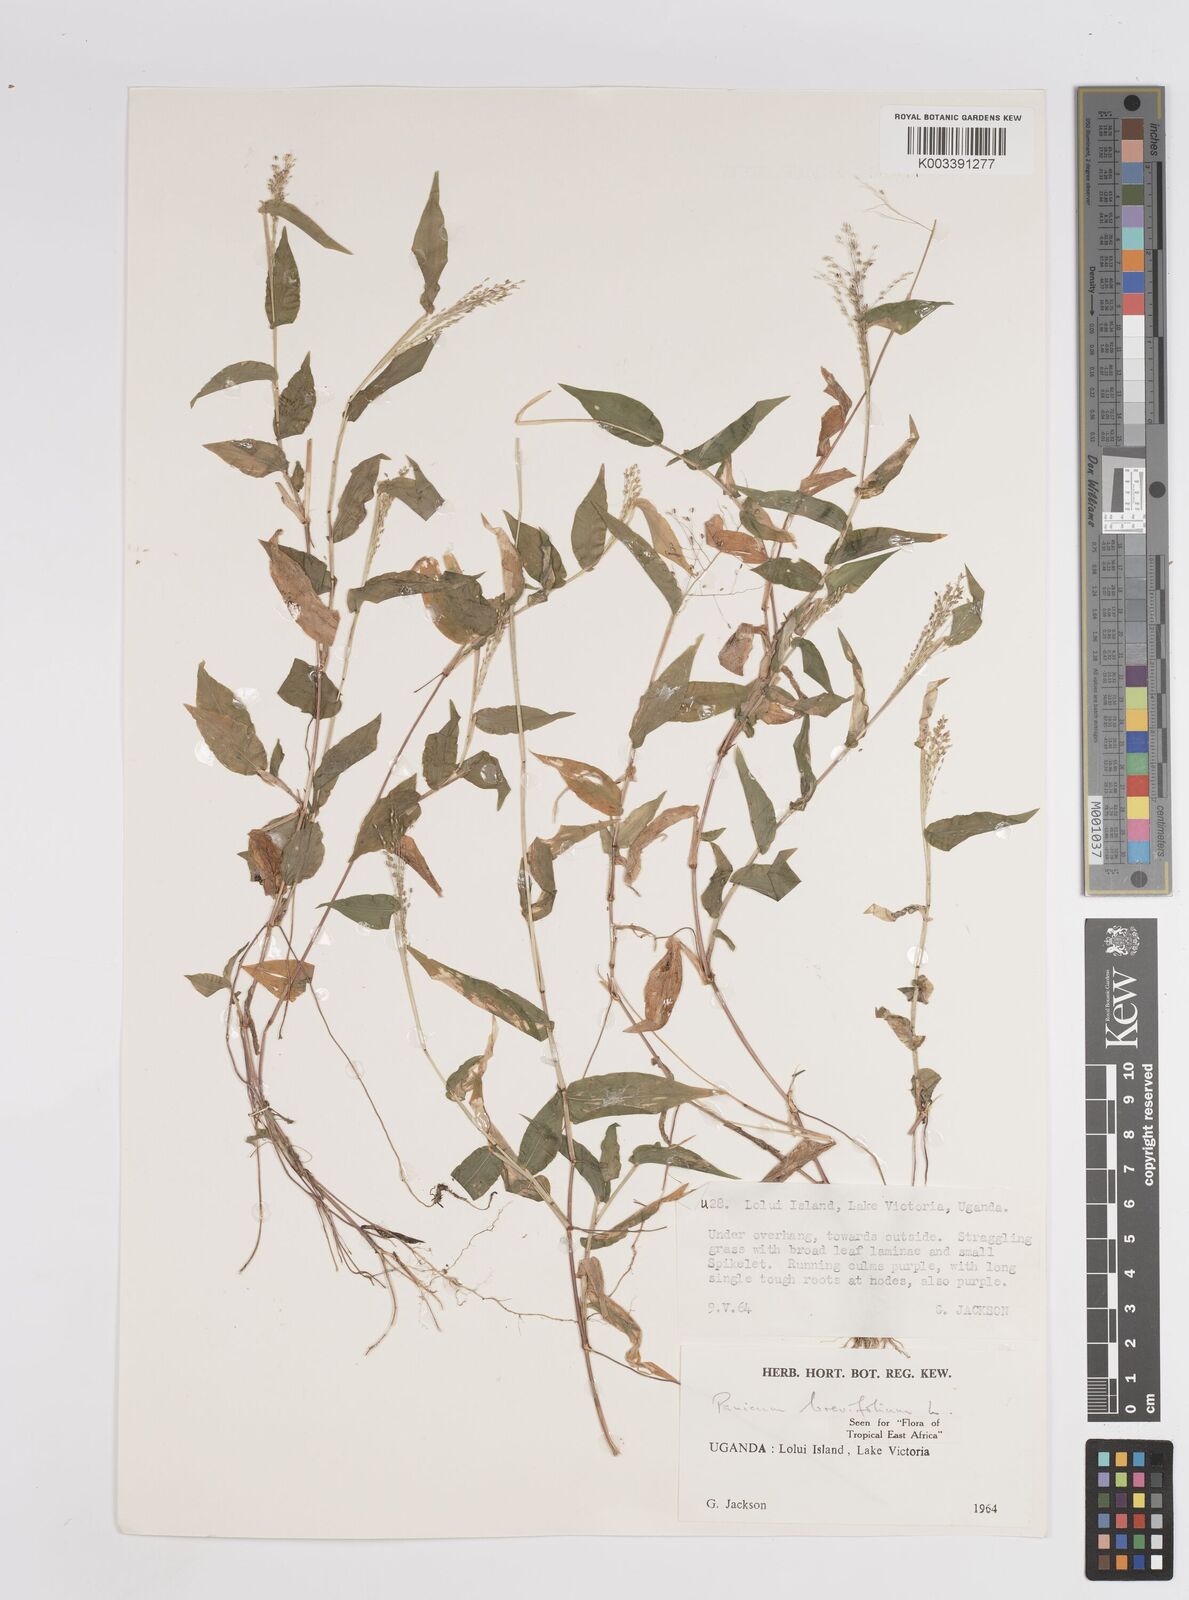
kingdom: Plantae
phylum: Tracheophyta
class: Liliopsida
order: Poales
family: Poaceae
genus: Panicum
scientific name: Panicum brevifolium
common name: Shortleaf panic grass
